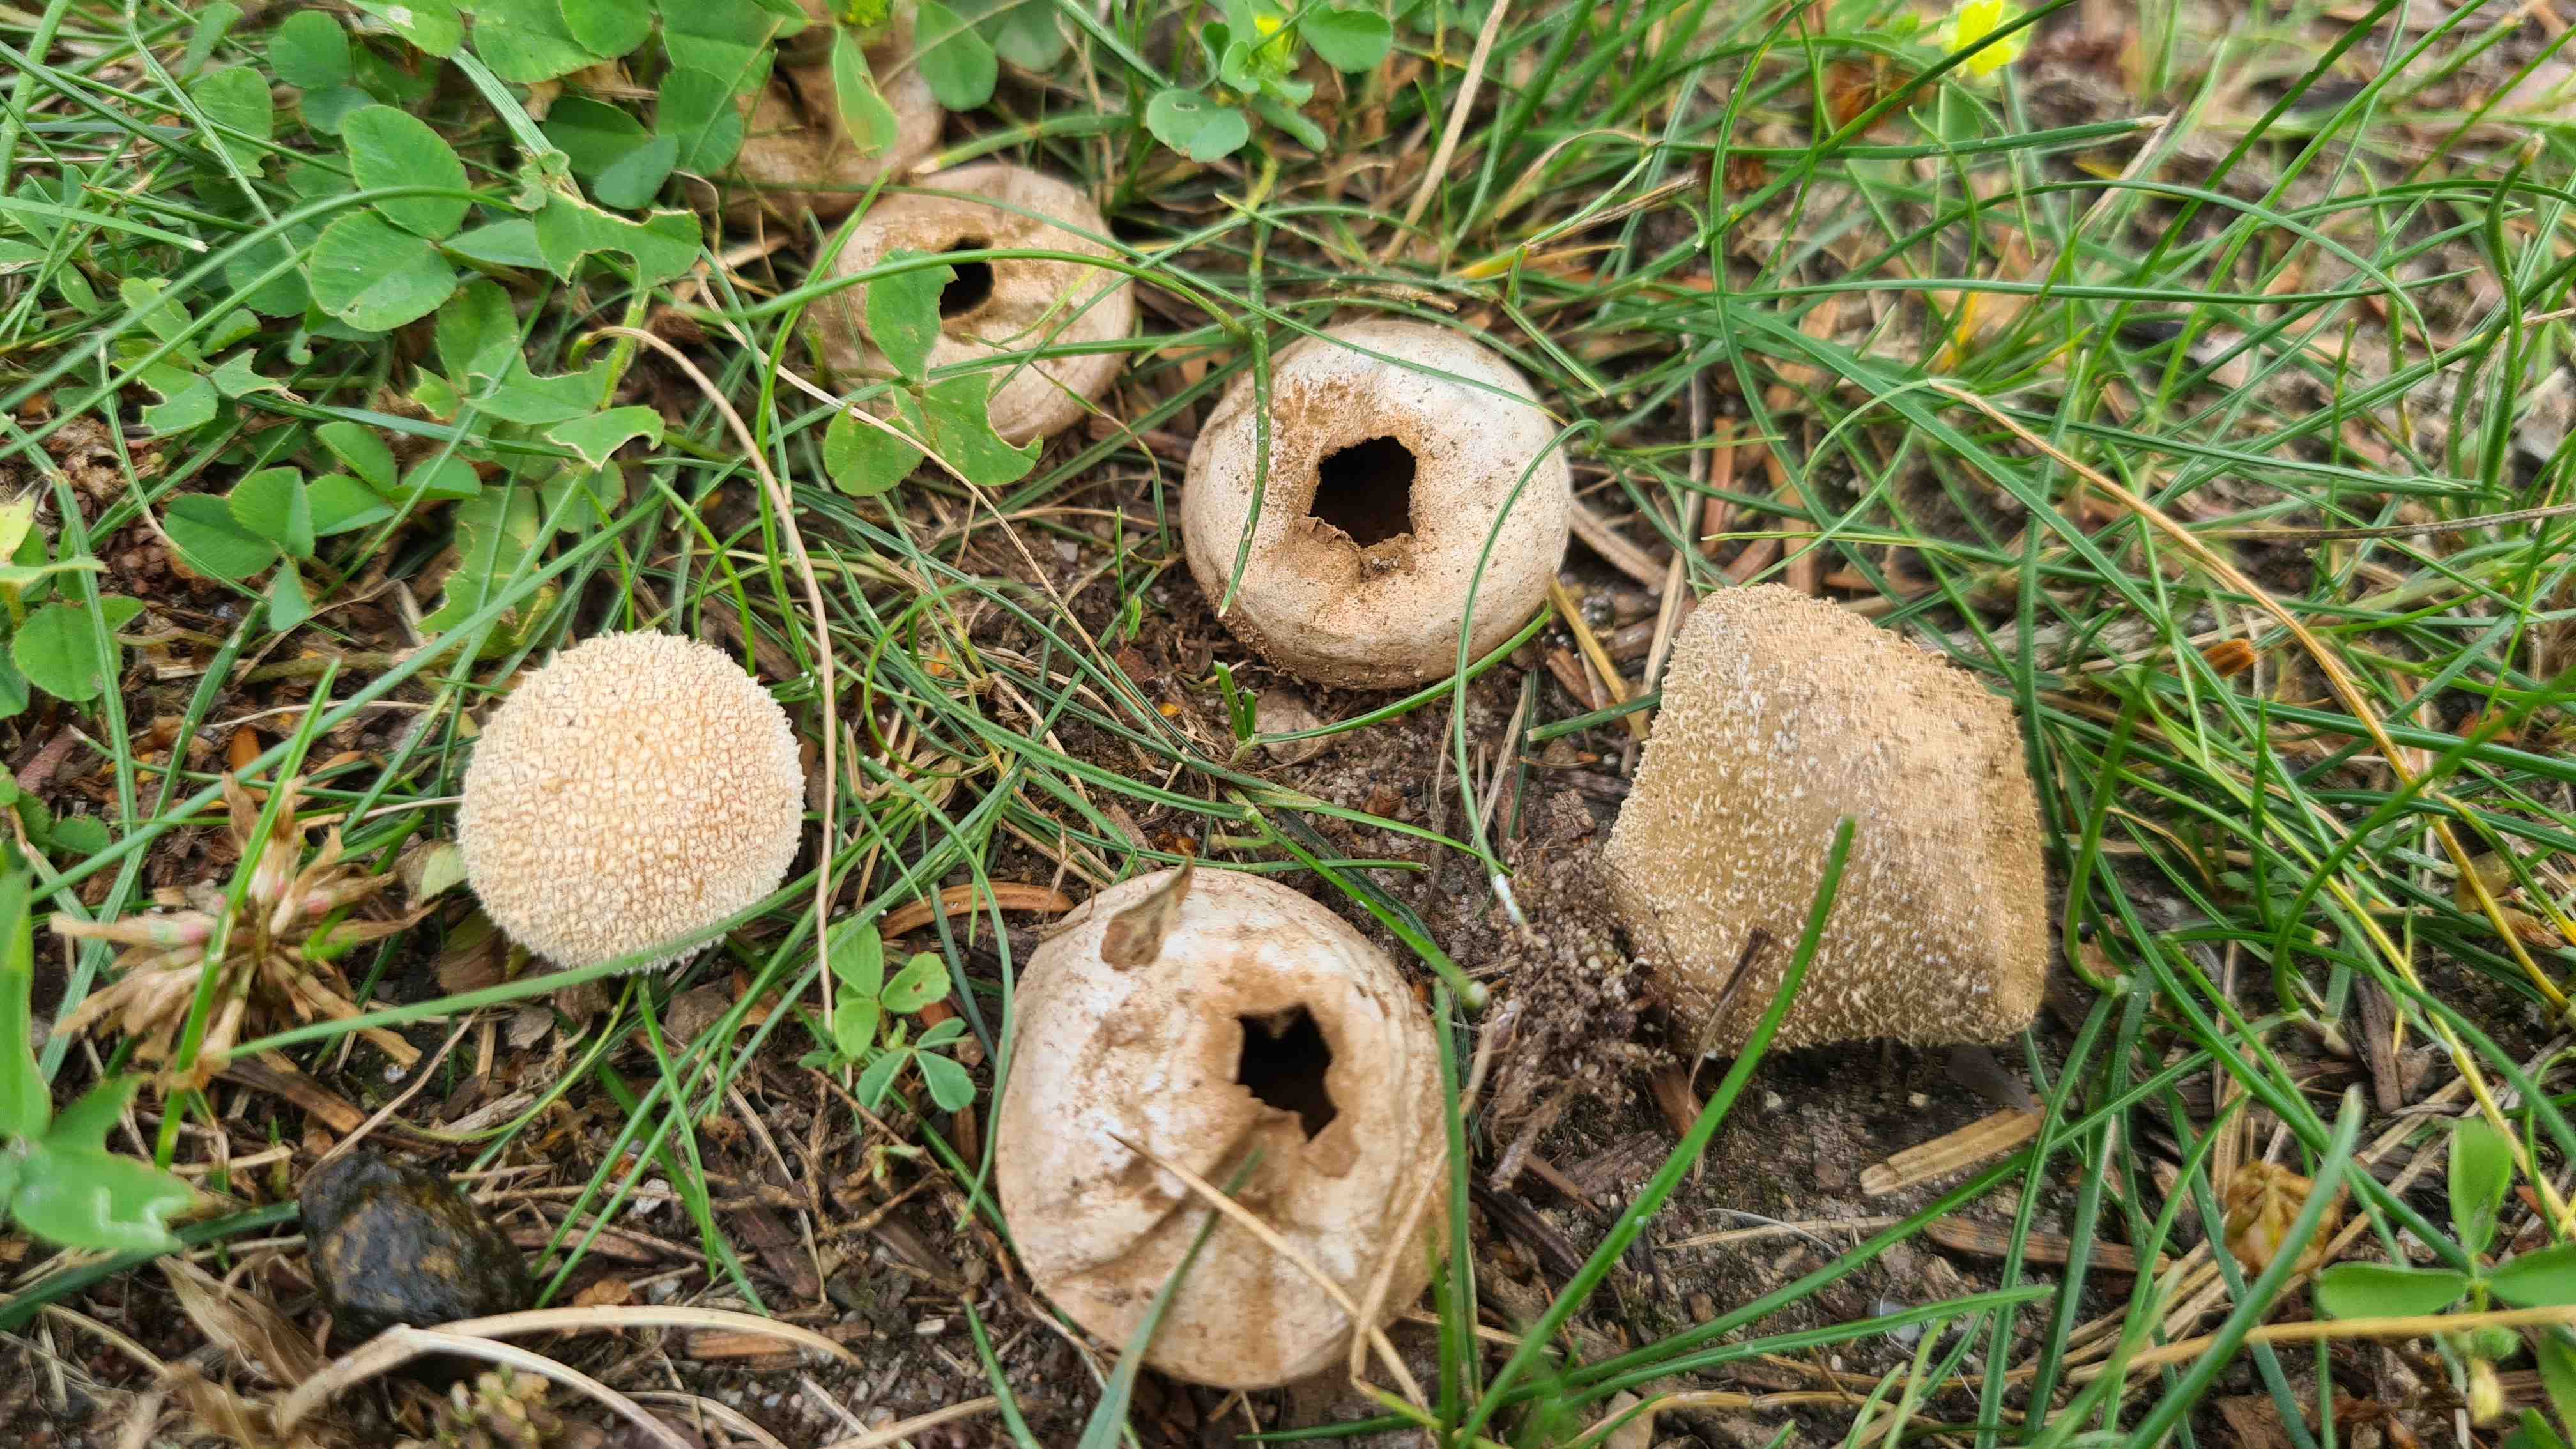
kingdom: Fungi
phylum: Basidiomycota
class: Agaricomycetes
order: Agaricales
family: Lycoperdaceae
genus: Lycoperdon
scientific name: Lycoperdon pratense
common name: flad støvbold
